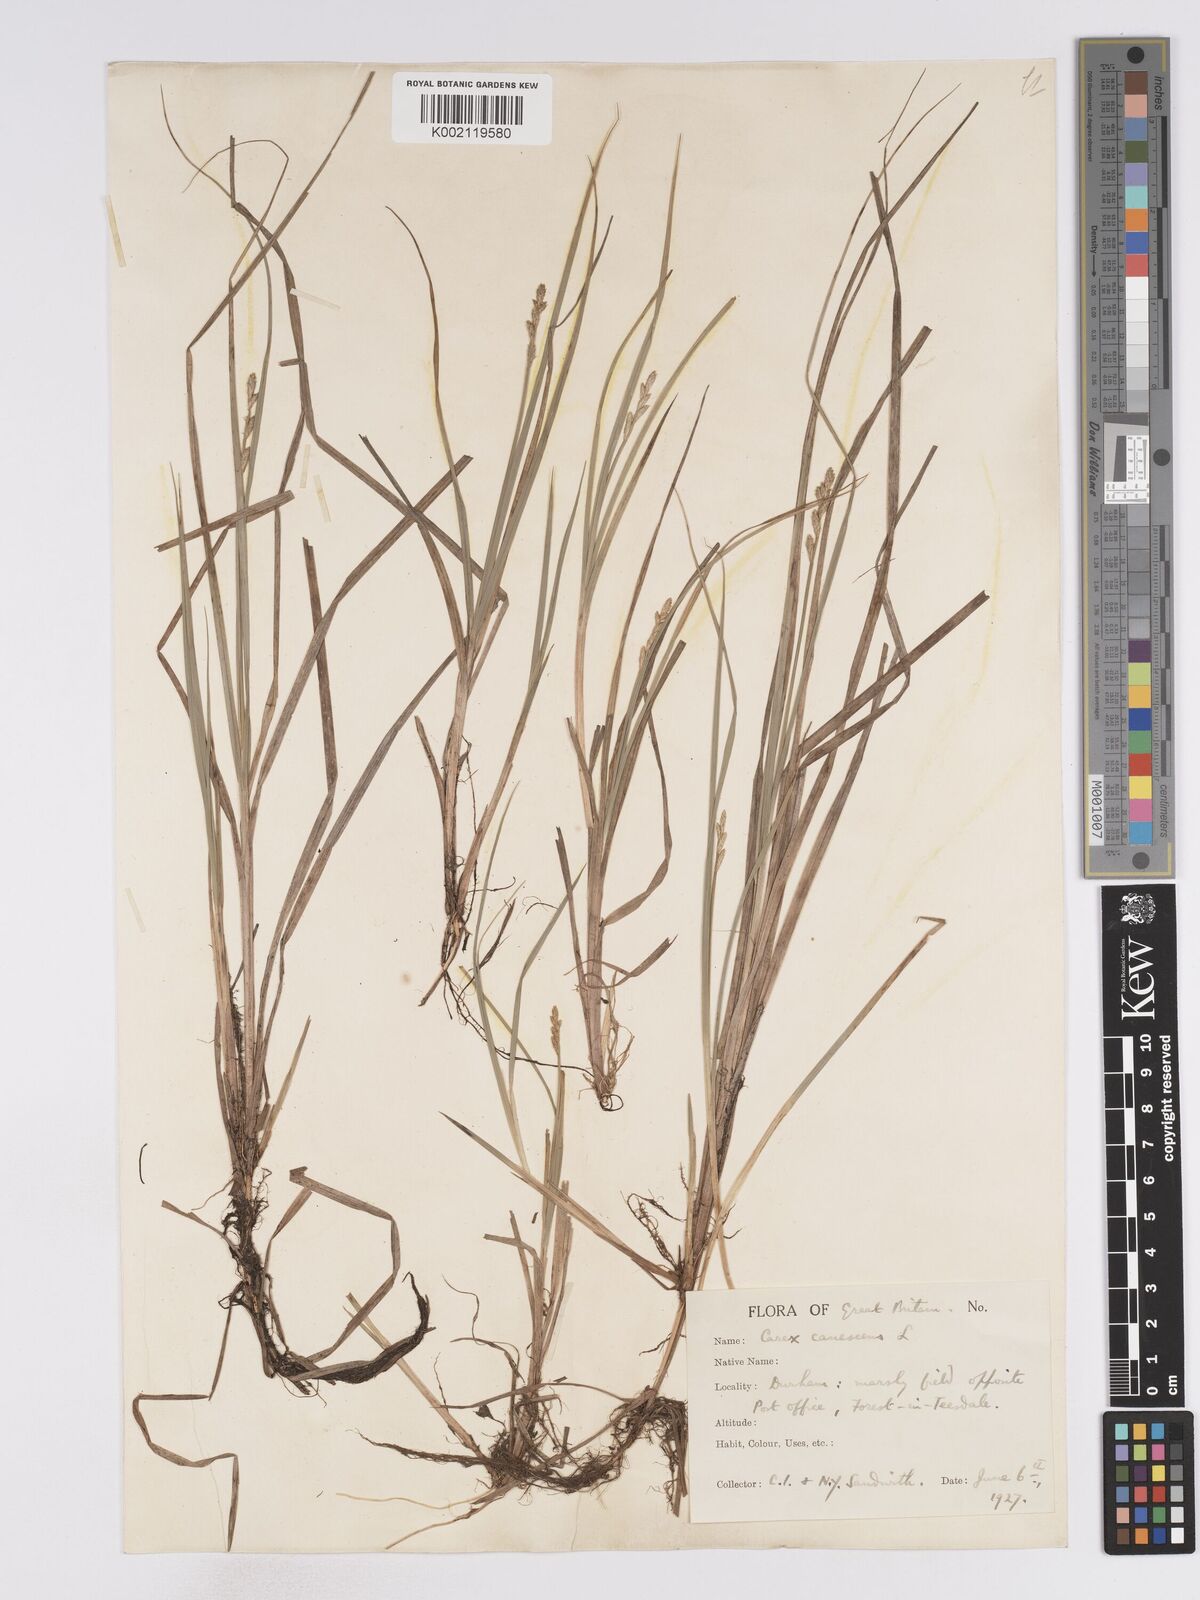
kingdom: Plantae
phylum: Tracheophyta
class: Liliopsida
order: Poales
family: Cyperaceae
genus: Carex
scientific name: Carex curta
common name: White sedge
